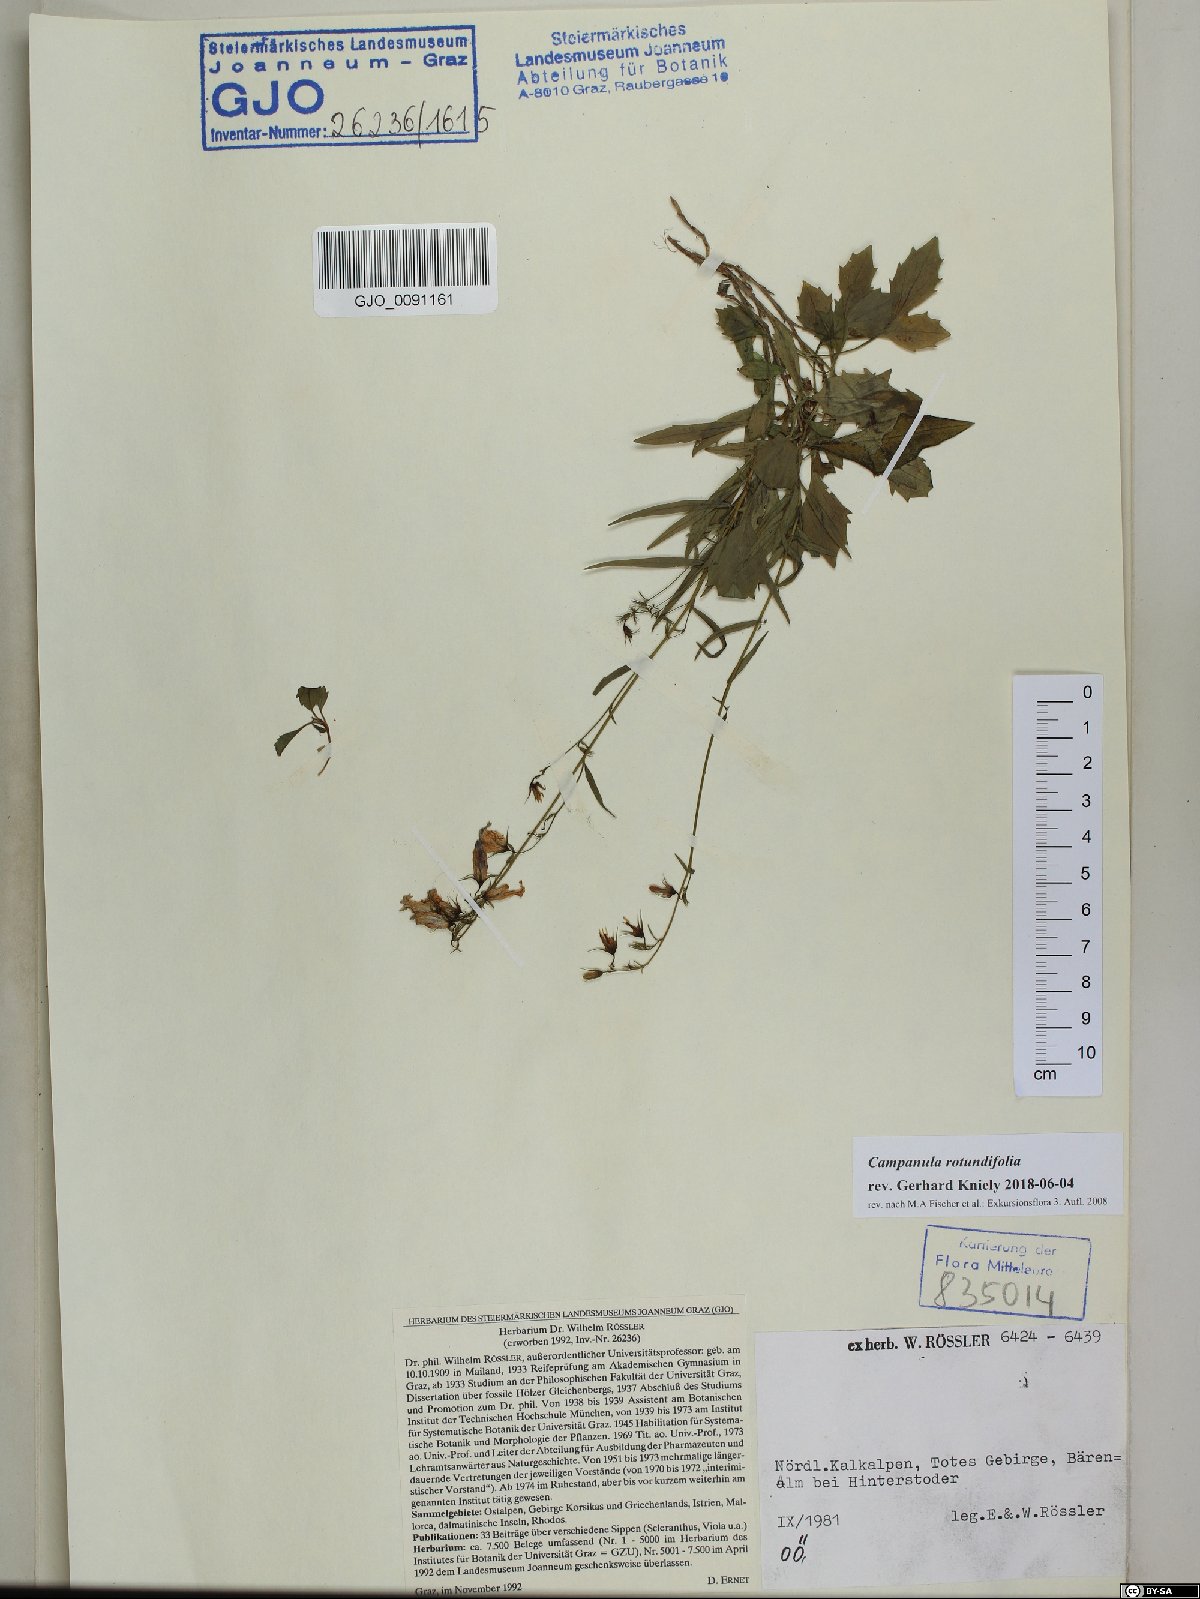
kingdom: Plantae
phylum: Tracheophyta
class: Magnoliopsida
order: Asterales
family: Campanulaceae
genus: Campanula
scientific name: Campanula rotundifolia
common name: Harebell
